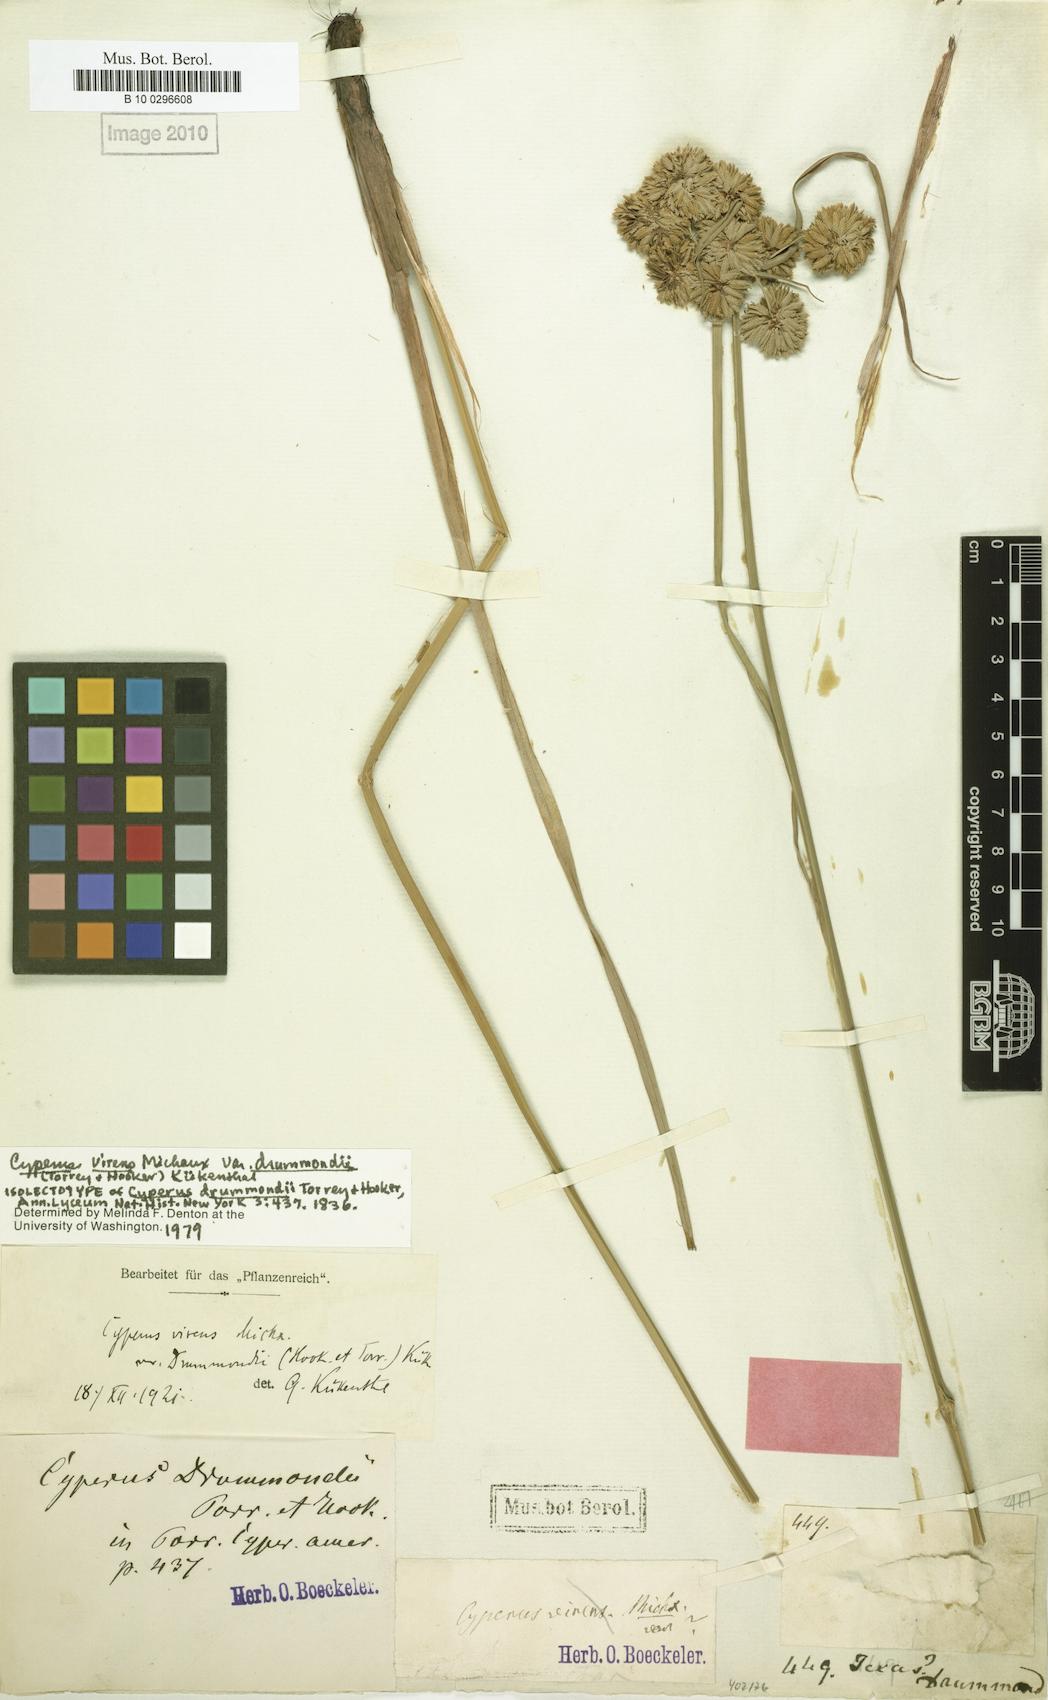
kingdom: Plantae
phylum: Tracheophyta
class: Liliopsida
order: Poales
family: Cyperaceae
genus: Cyperus
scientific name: Cyperus drummondii
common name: Green flat sedge
